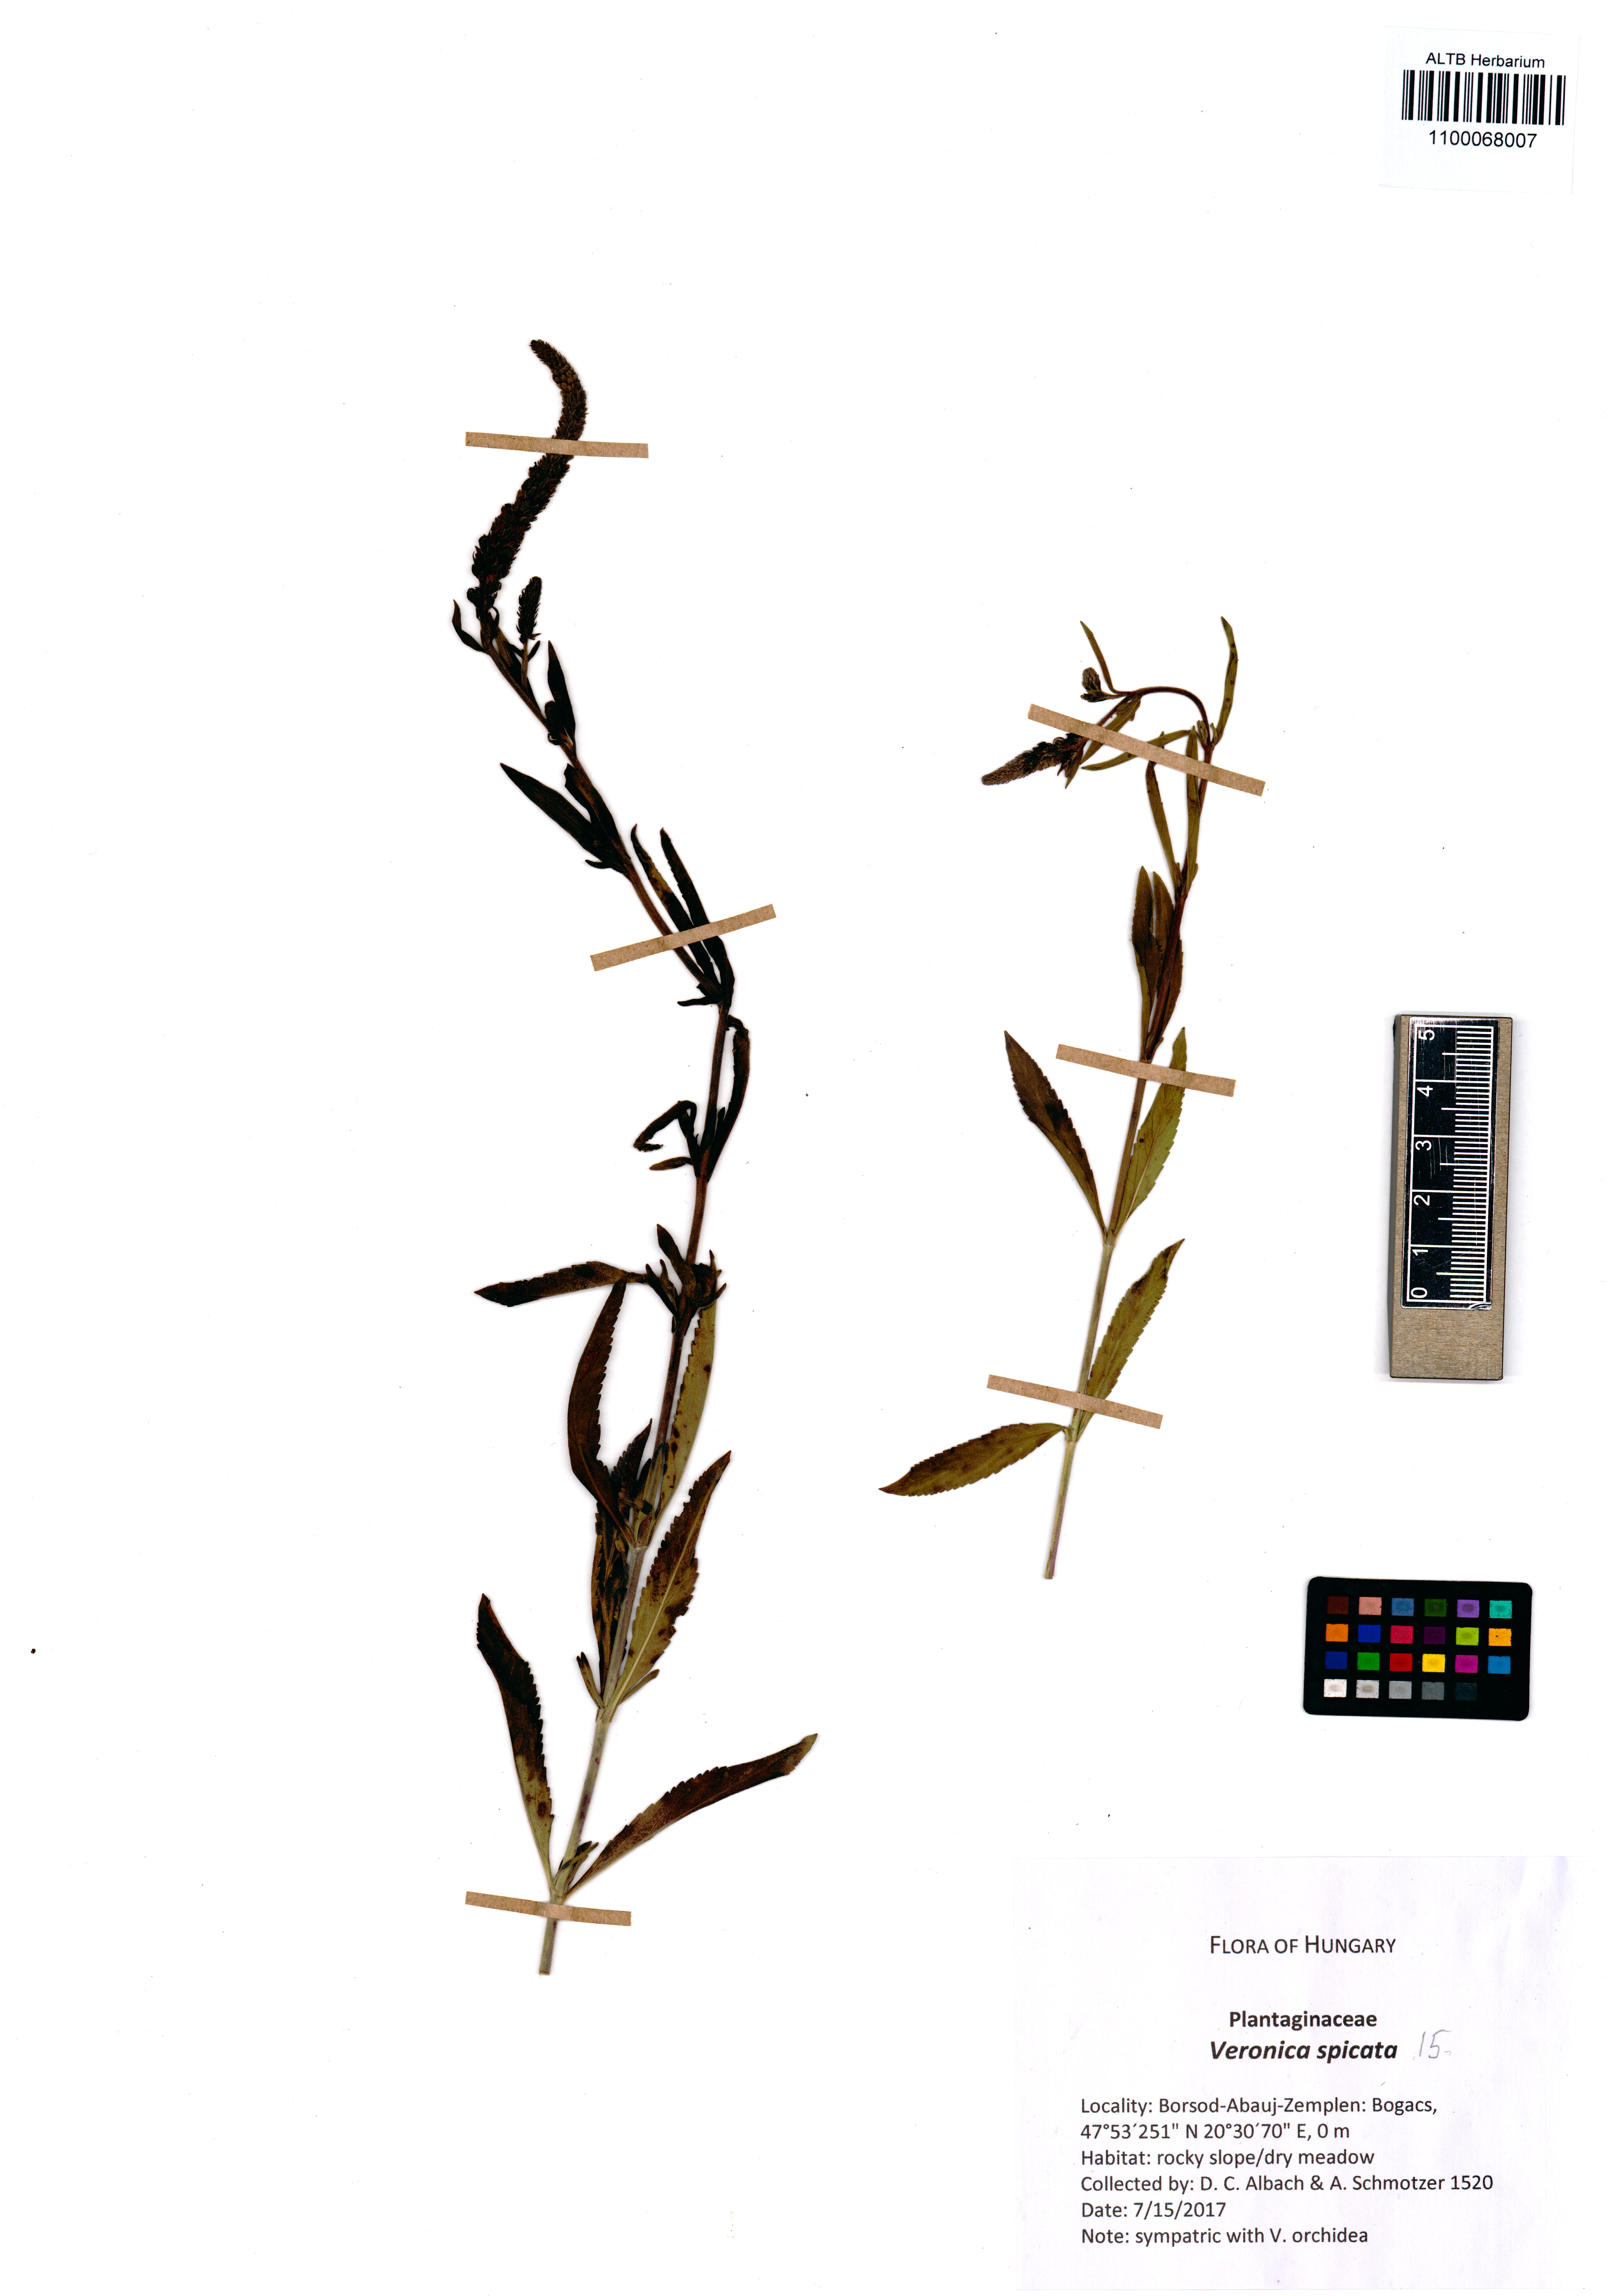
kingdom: Plantae
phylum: Tracheophyta
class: Magnoliopsida
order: Lamiales
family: Plantaginaceae
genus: Veronica
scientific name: Veronica spicata
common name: Spiked speedwell
